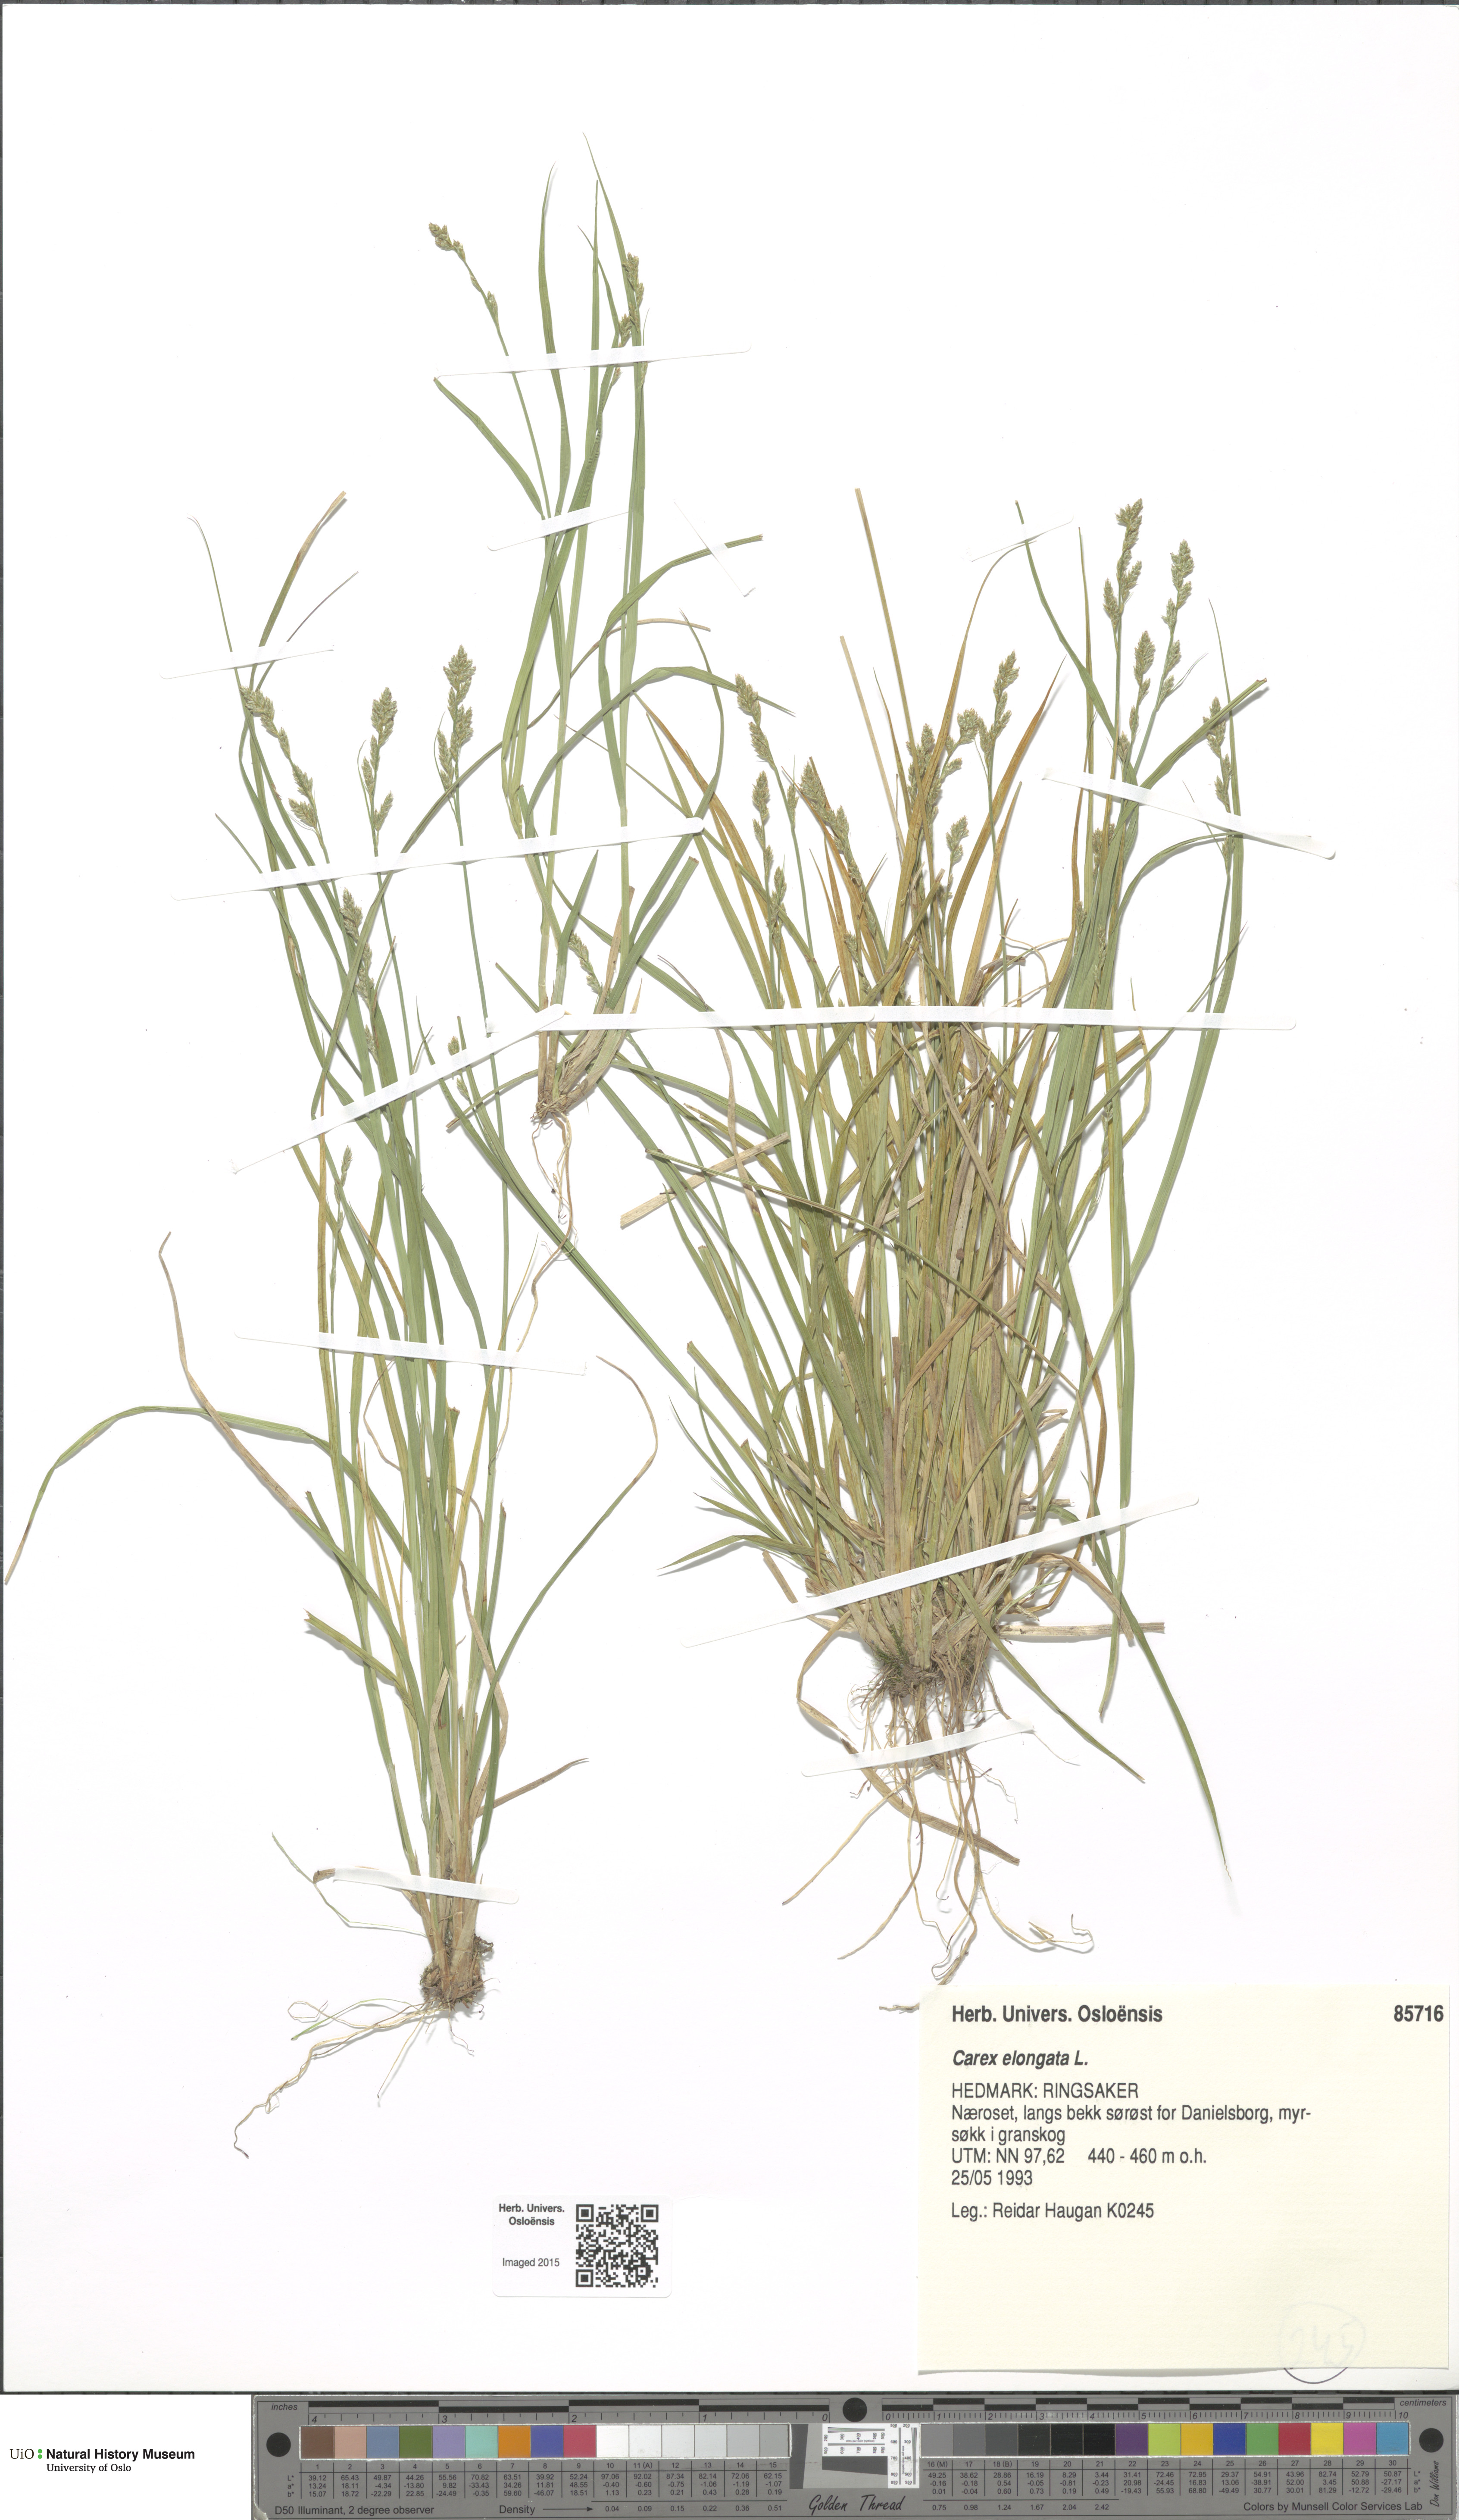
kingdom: Plantae
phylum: Tracheophyta
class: Liliopsida
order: Poales
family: Cyperaceae
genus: Carex
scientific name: Carex elongata
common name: Elongated sedge
